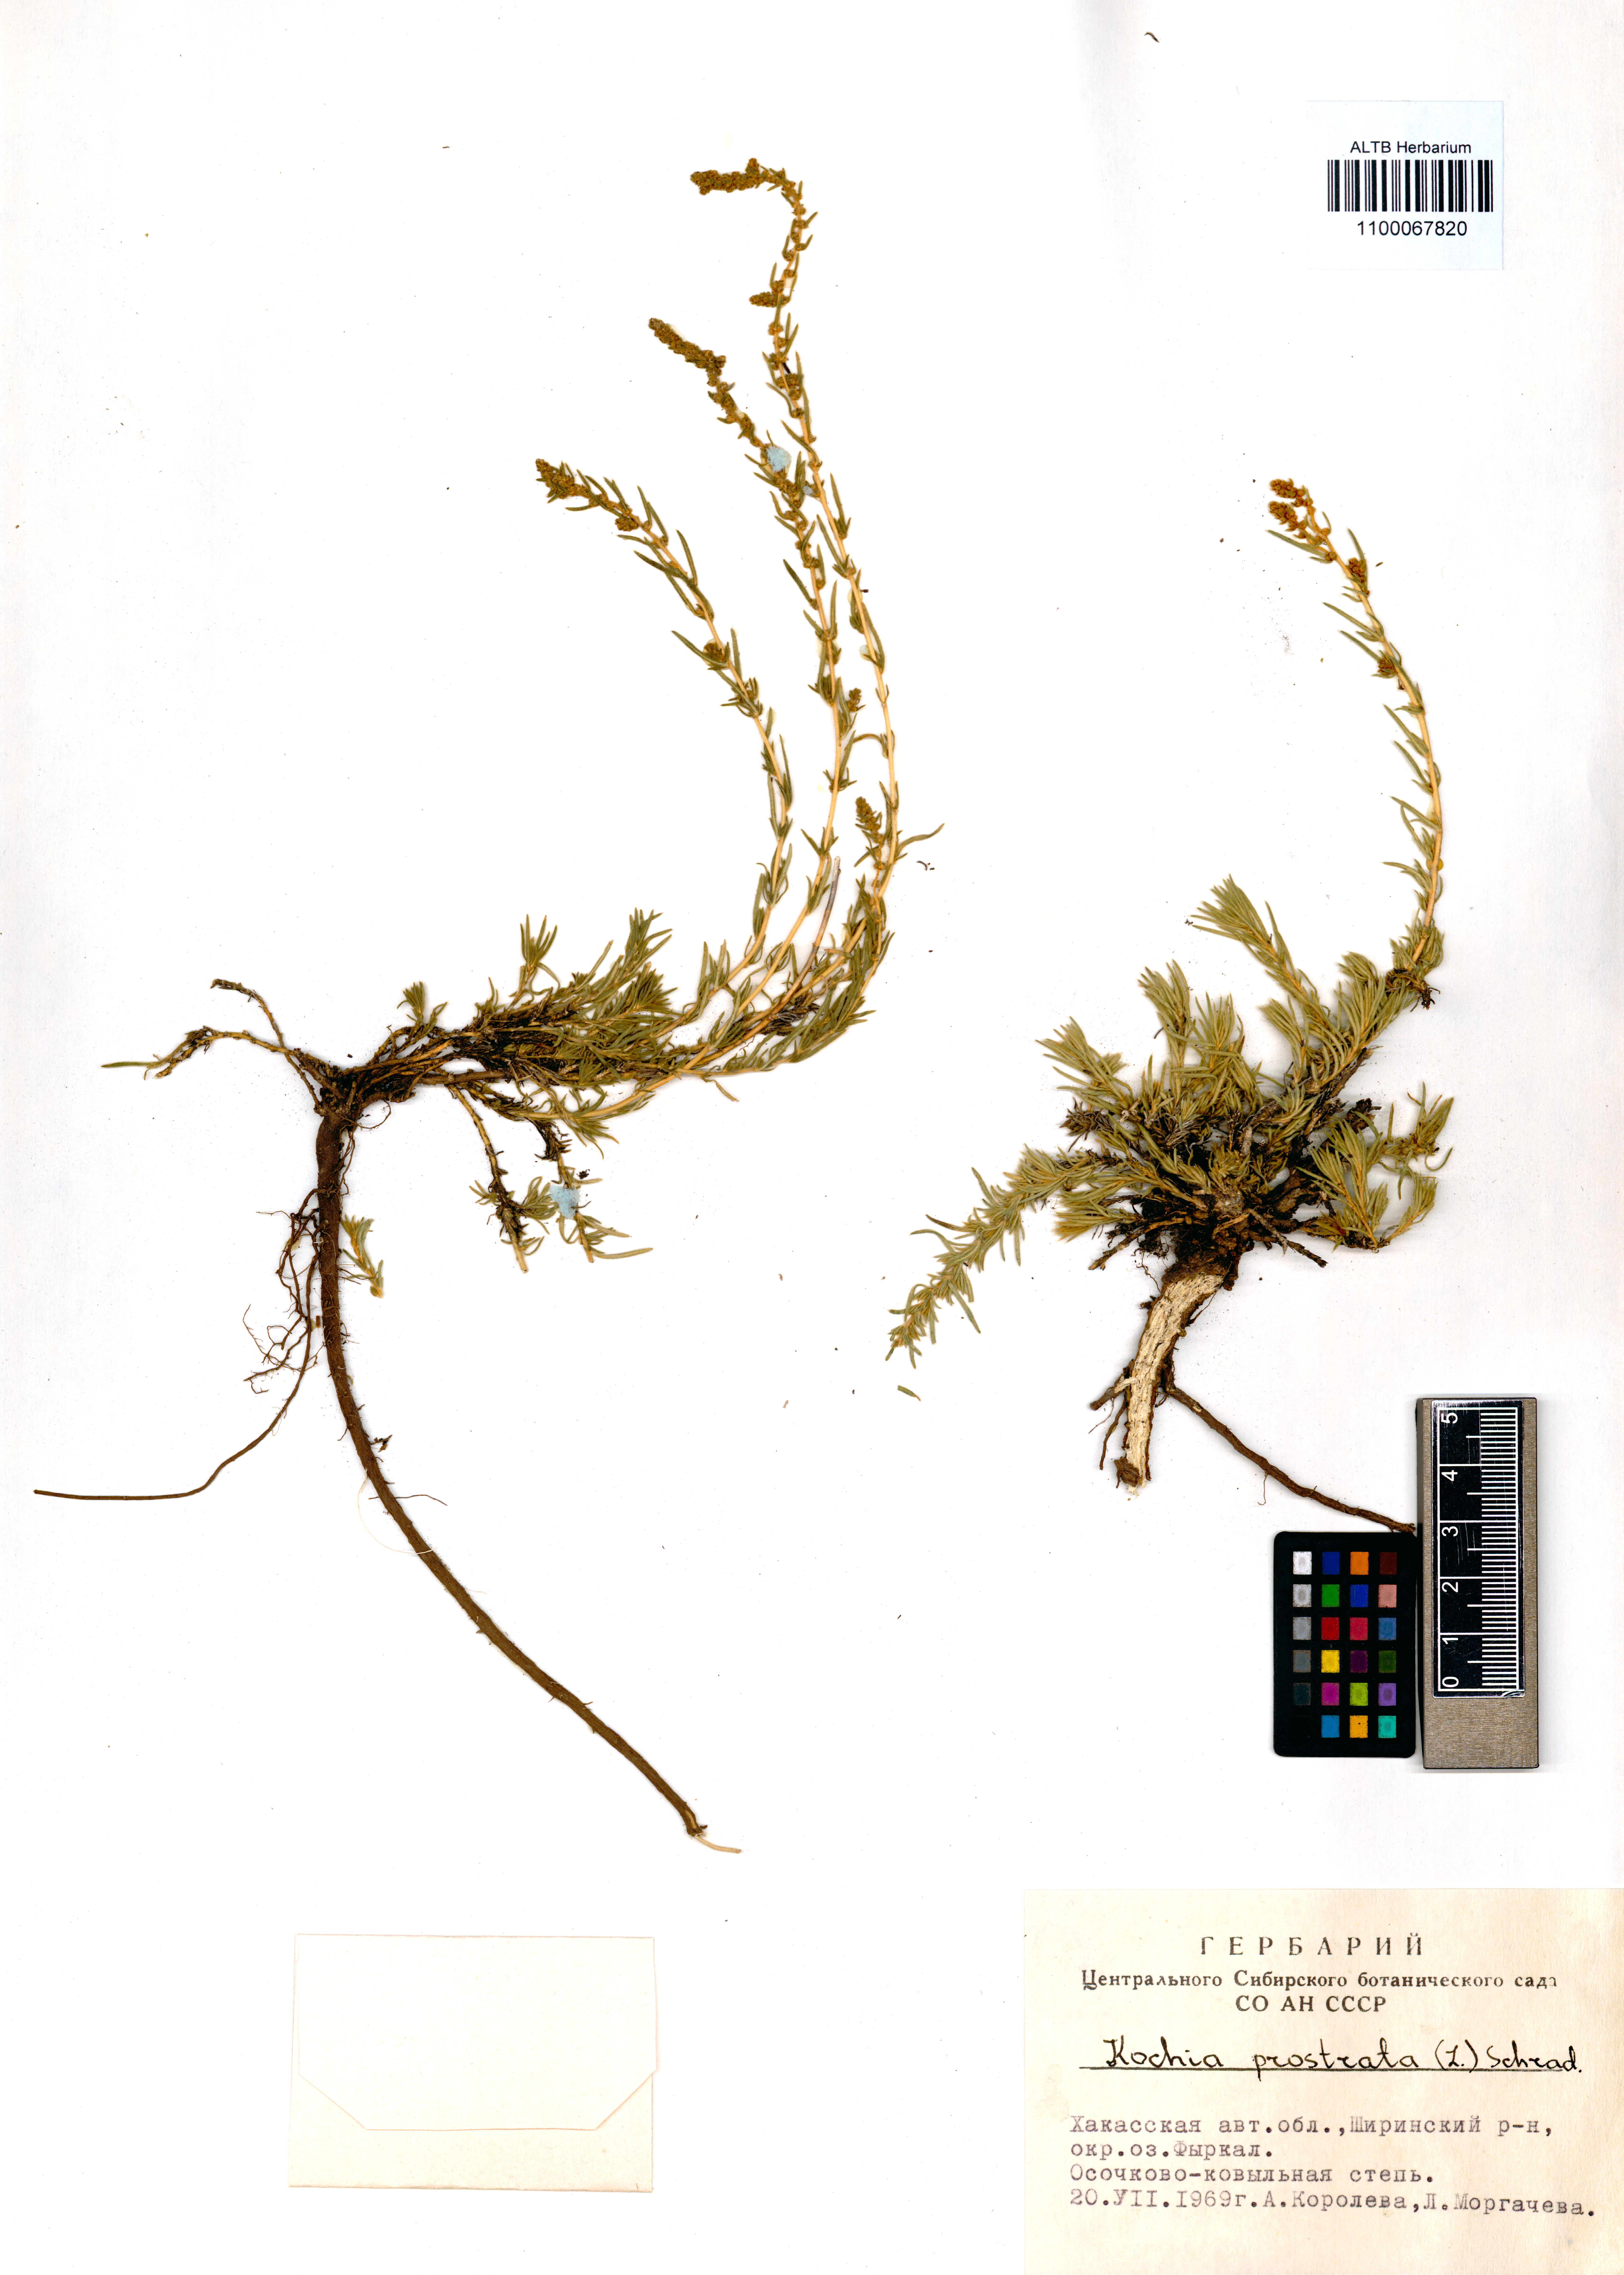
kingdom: Plantae
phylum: Tracheophyta
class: Magnoliopsida
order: Caryophyllales
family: Amaranthaceae
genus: Bassia
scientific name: Bassia prostrata
